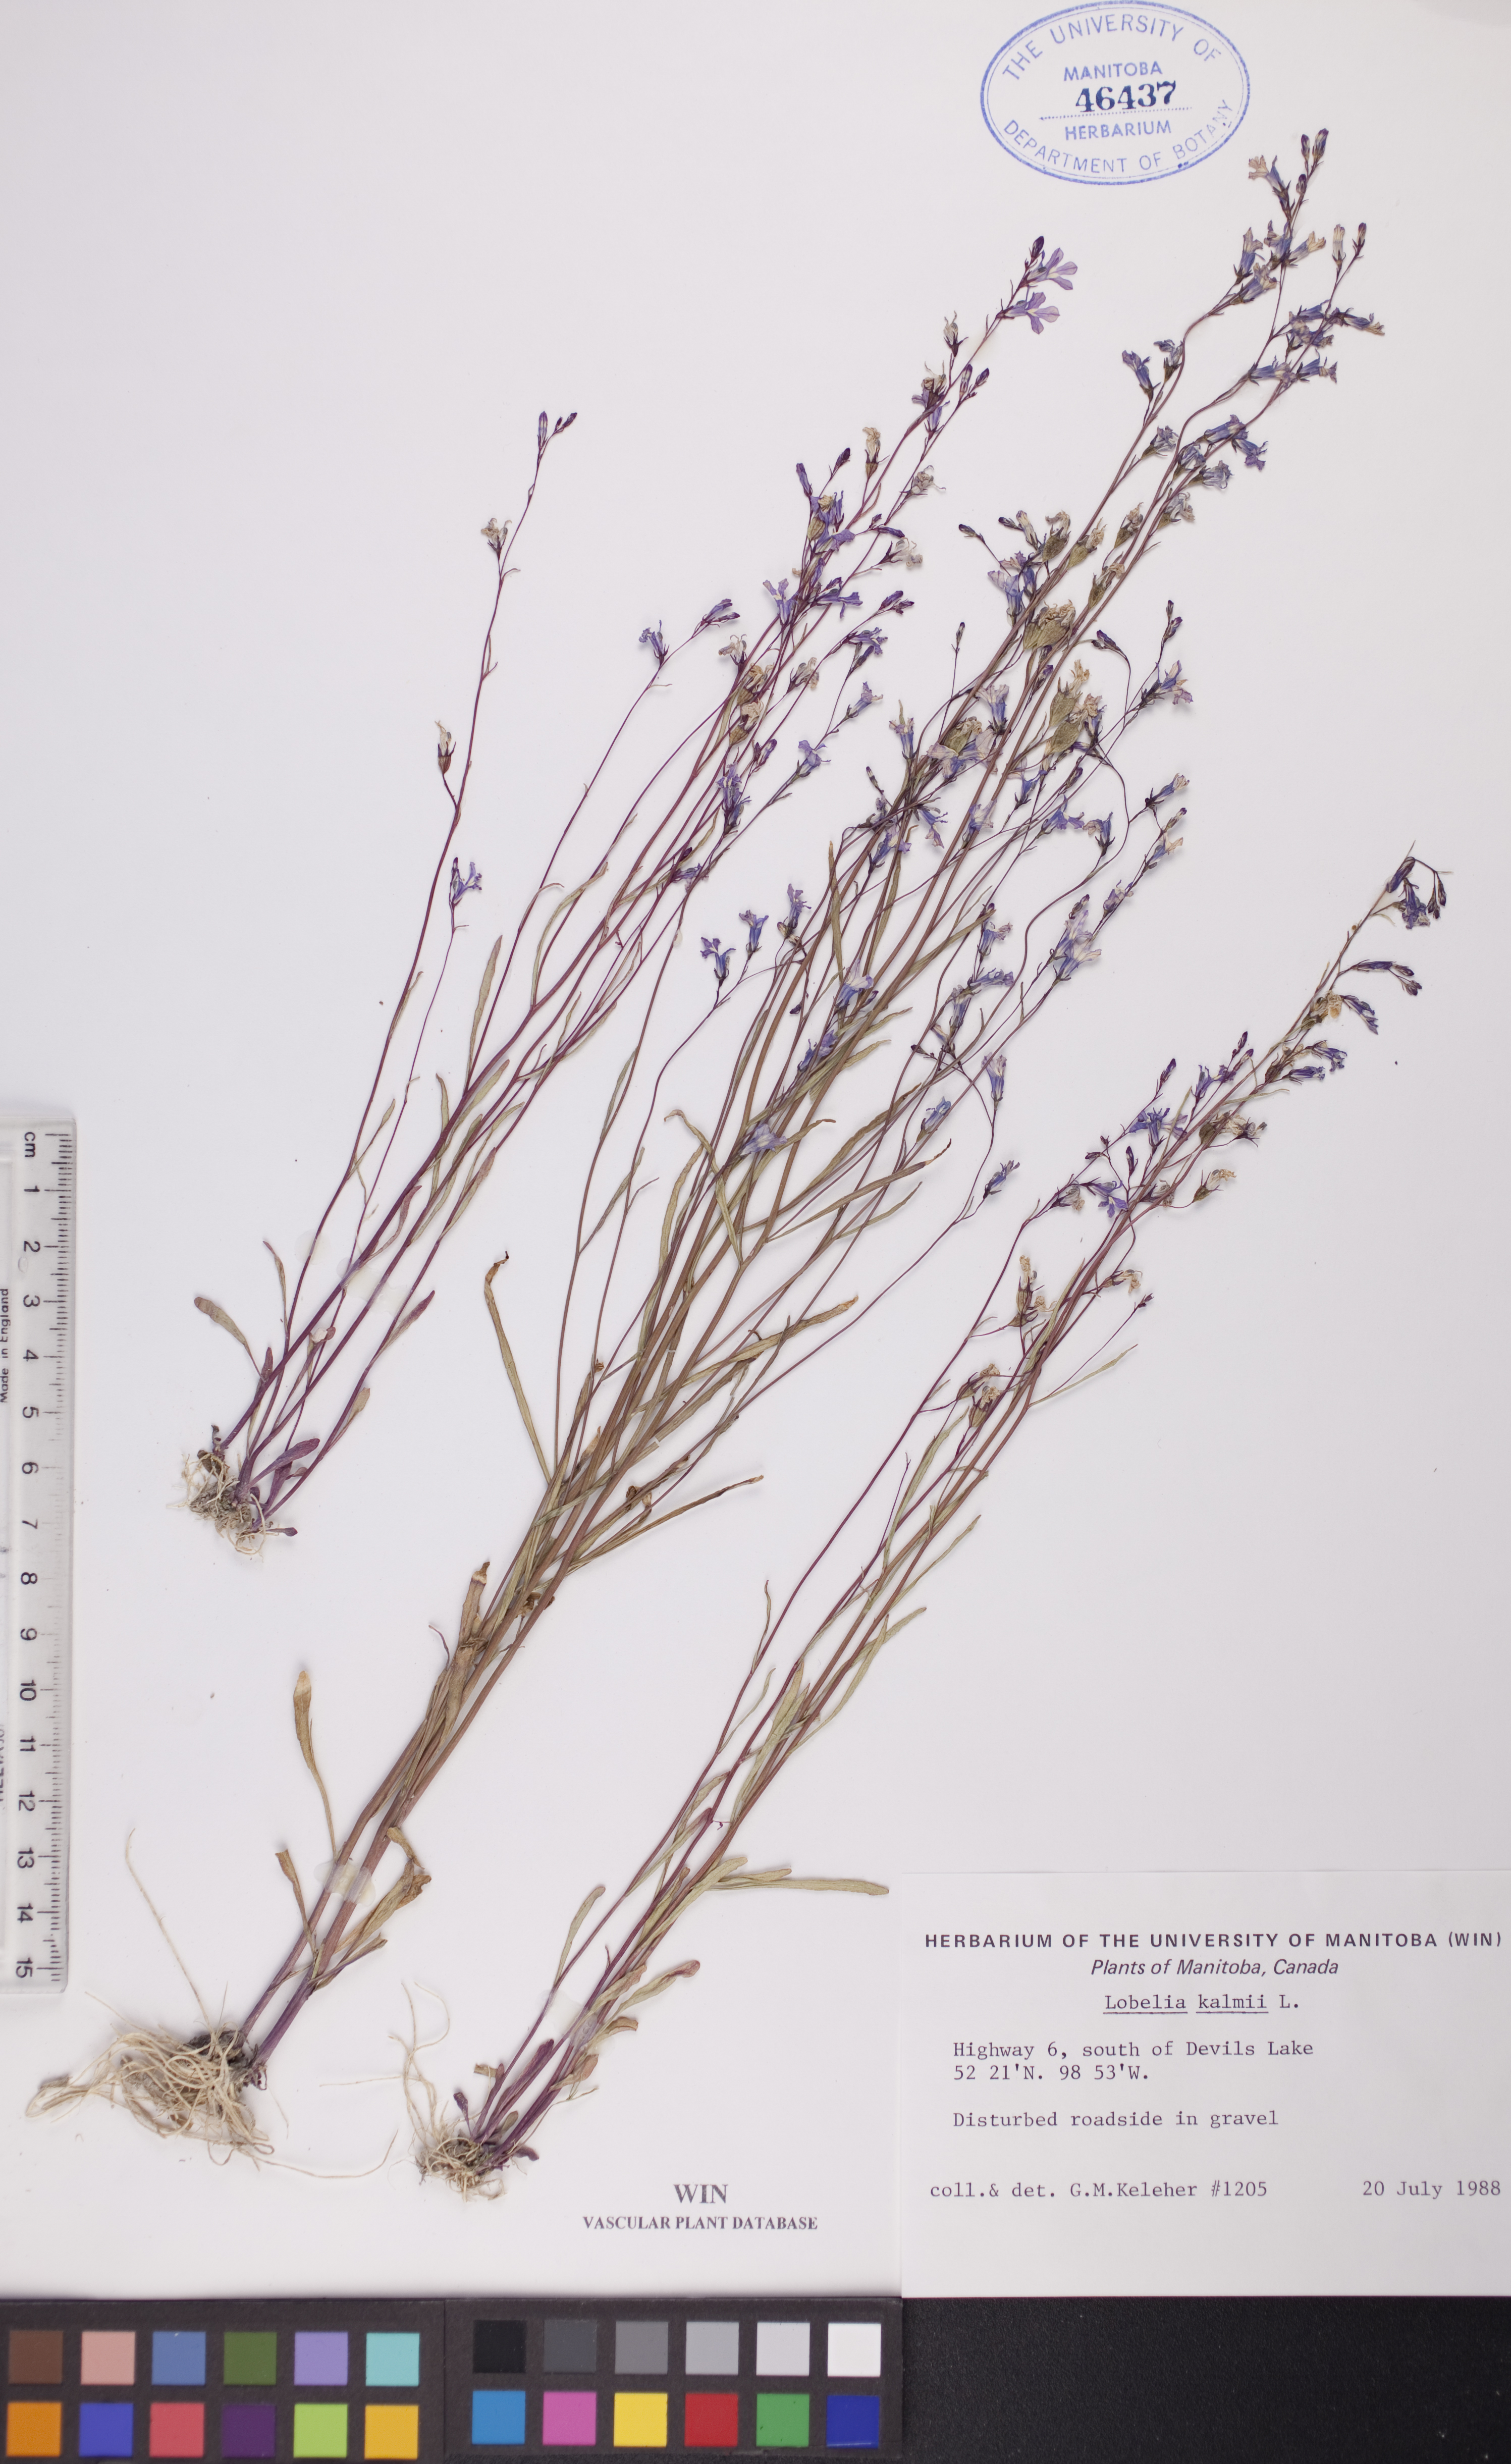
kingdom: Plantae
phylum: Tracheophyta
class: Magnoliopsida
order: Asterales
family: Campanulaceae
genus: Lobelia
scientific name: Lobelia kalmii
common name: Kalm's lobelia
